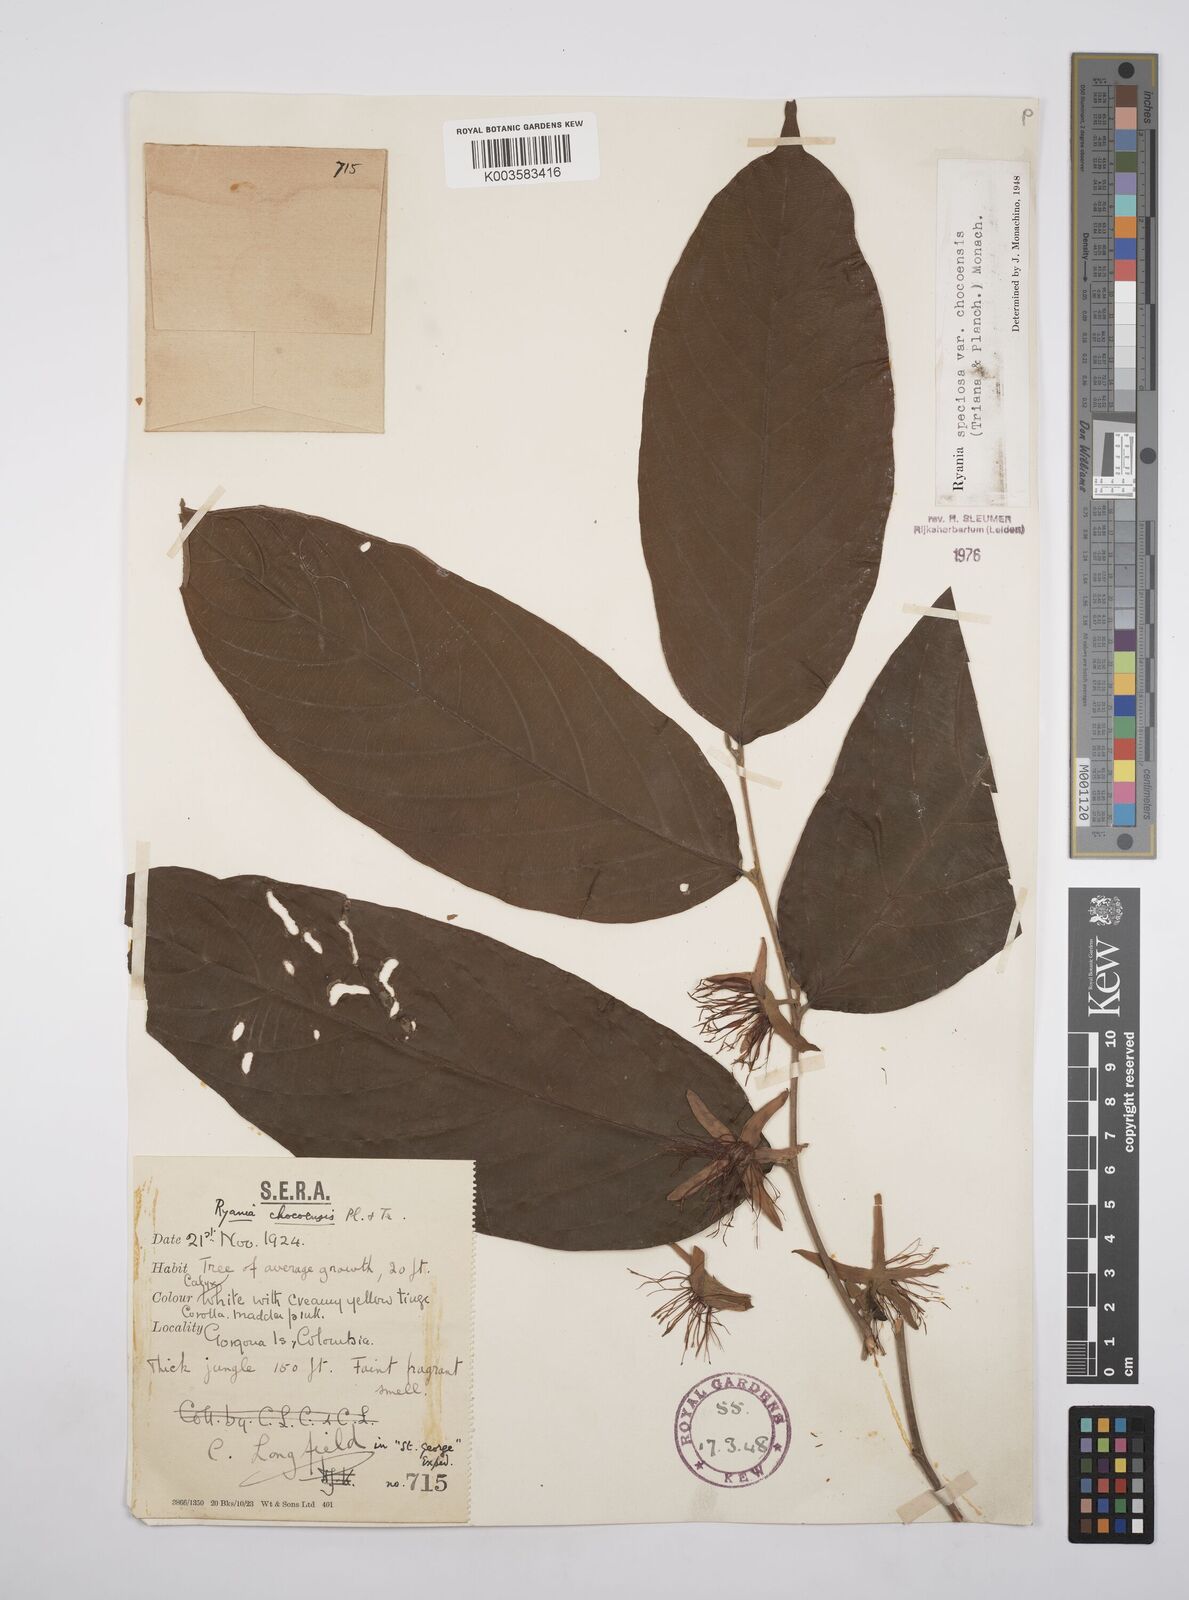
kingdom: Plantae
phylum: Tracheophyta
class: Magnoliopsida
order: Malpighiales
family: Salicaceae
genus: Ryania
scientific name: Ryania speciosa
